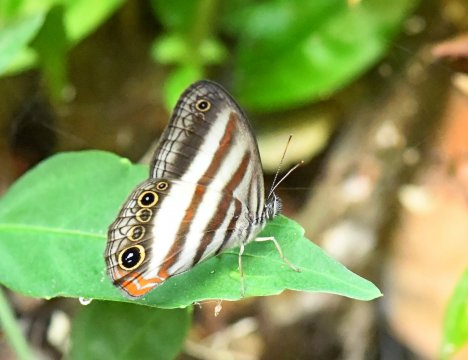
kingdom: Animalia
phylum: Arthropoda
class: Insecta
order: Lepidoptera
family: Nymphalidae
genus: Pareuptychia
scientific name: Pareuptychia metaleuca
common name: White-banded Satyr
